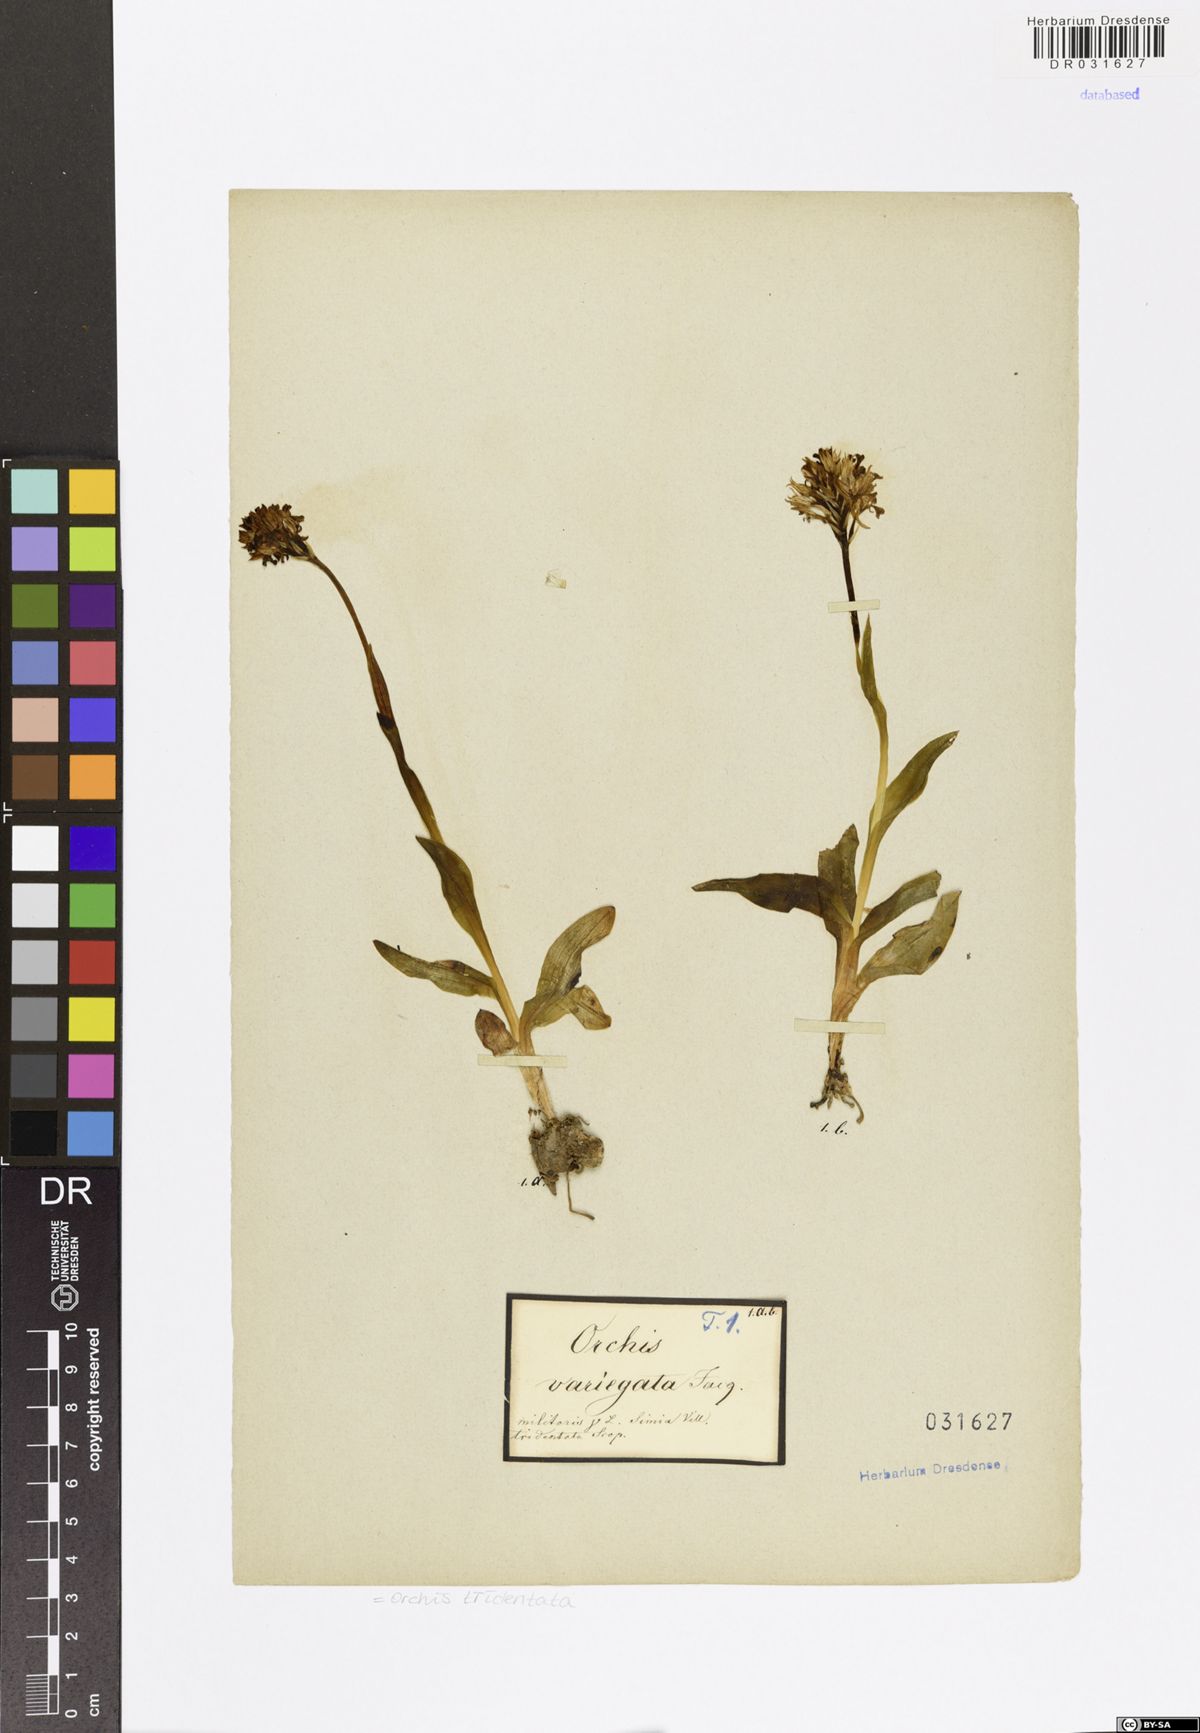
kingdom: Plantae
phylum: Tracheophyta
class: Liliopsida
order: Asparagales
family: Orchidaceae
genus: Neotinea
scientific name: Neotinea tridentata
